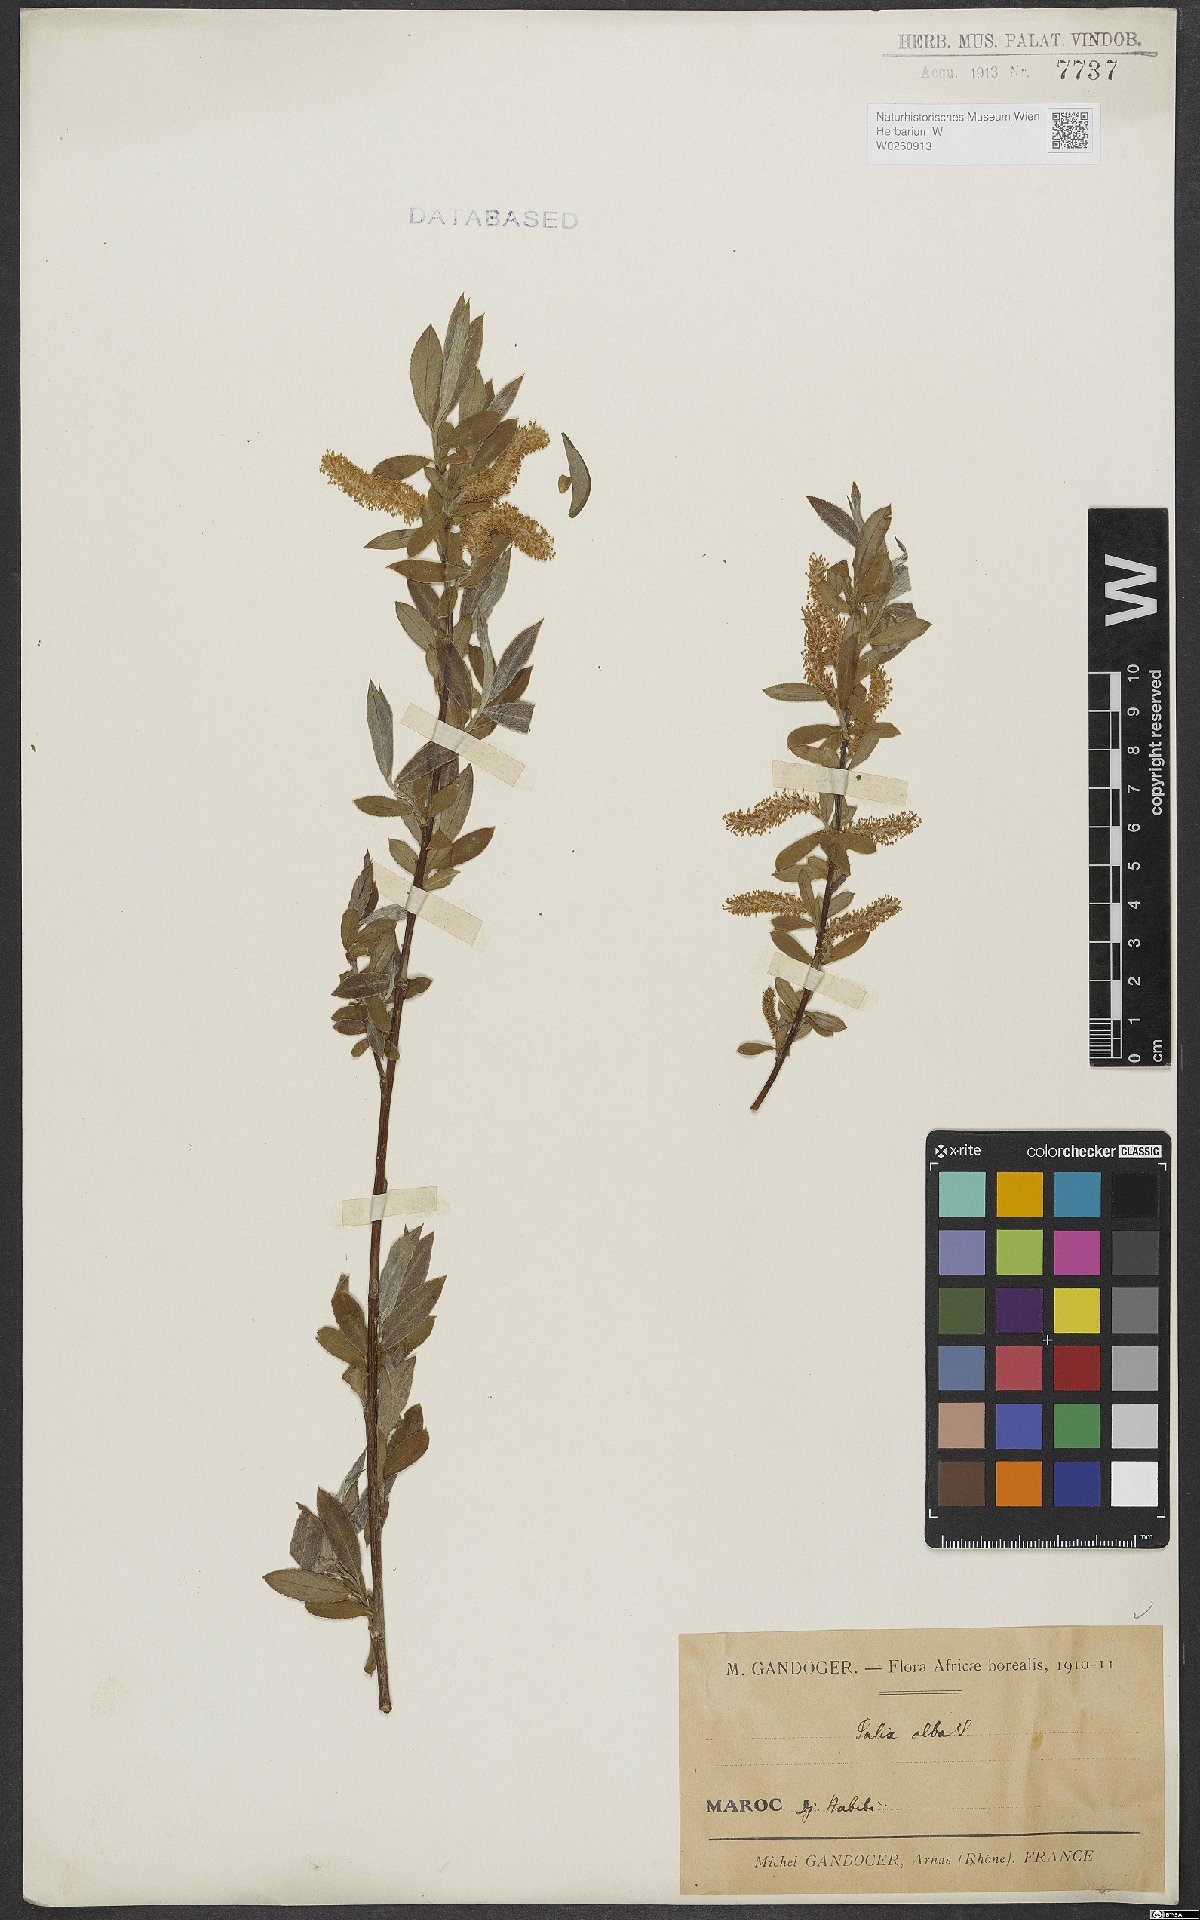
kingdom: Plantae
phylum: Tracheophyta
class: Magnoliopsida
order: Malpighiales
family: Salicaceae
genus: Salix
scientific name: Salix alba
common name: White willow
